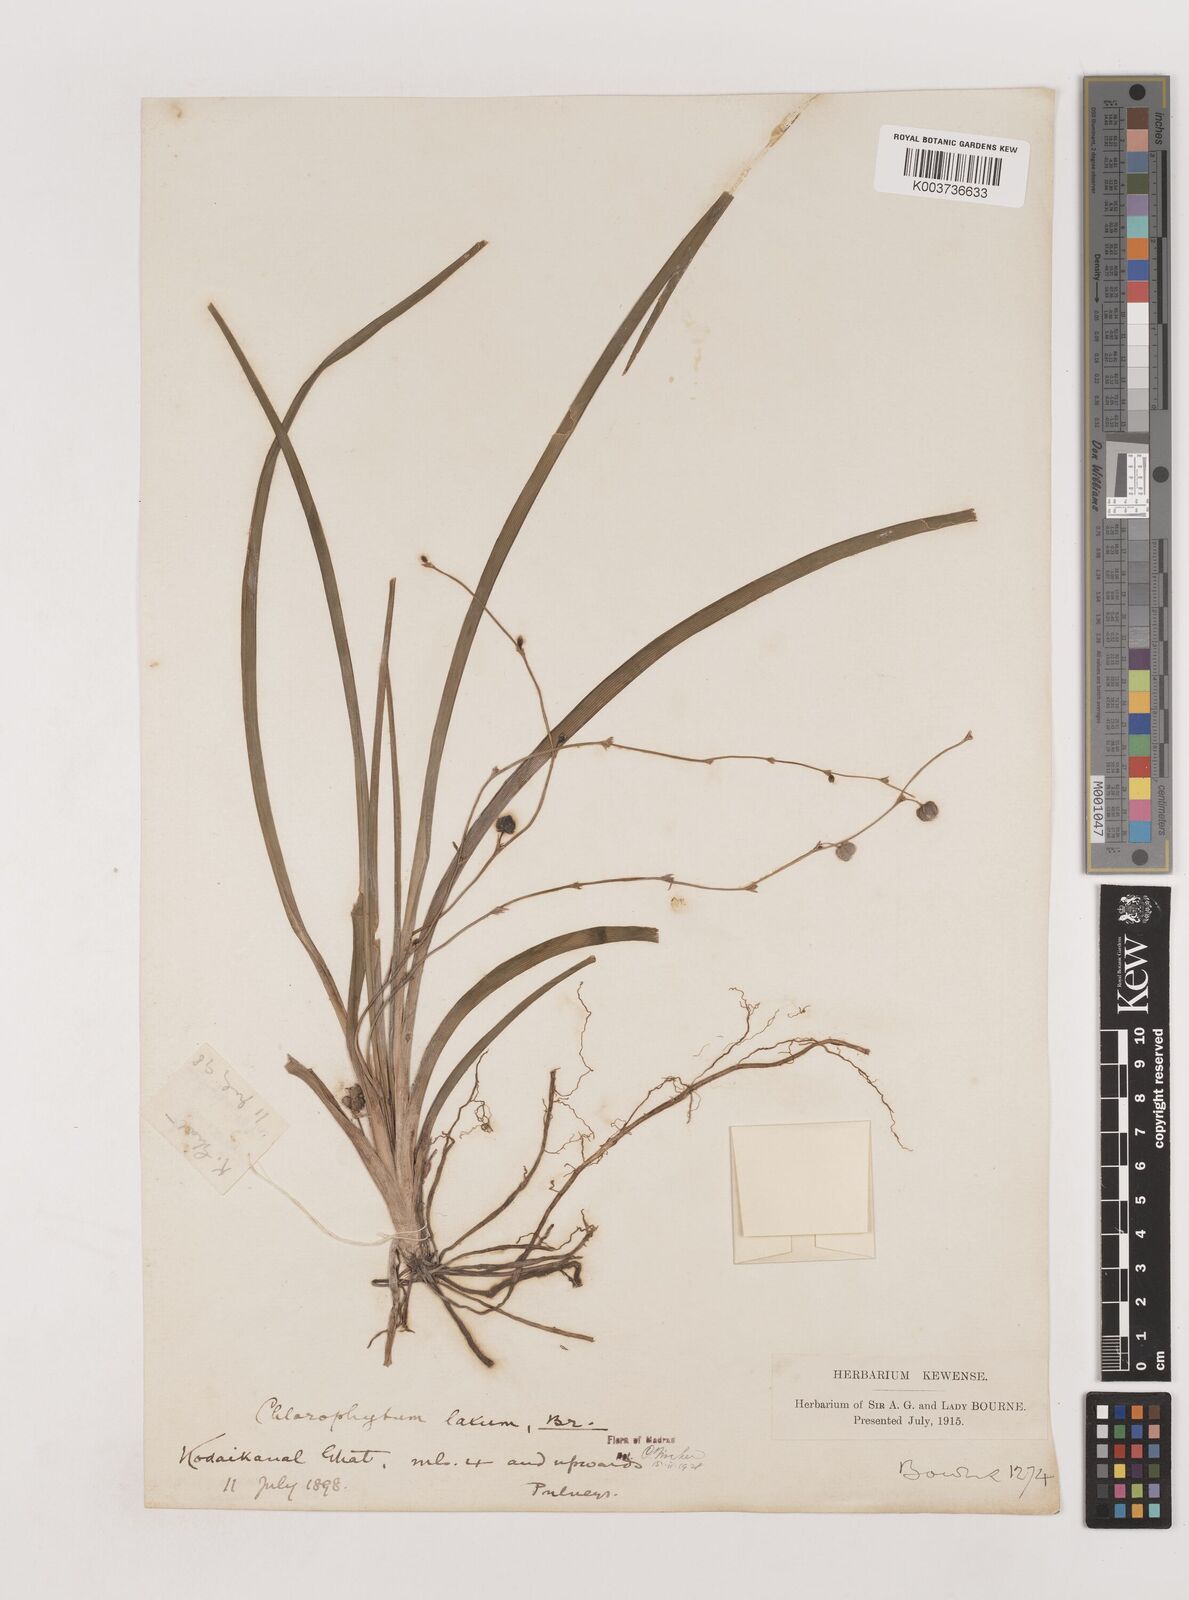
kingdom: Plantae
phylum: Tracheophyta
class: Liliopsida
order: Asparagales
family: Asparagaceae
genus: Chlorophytum
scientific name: Chlorophytum laxum
